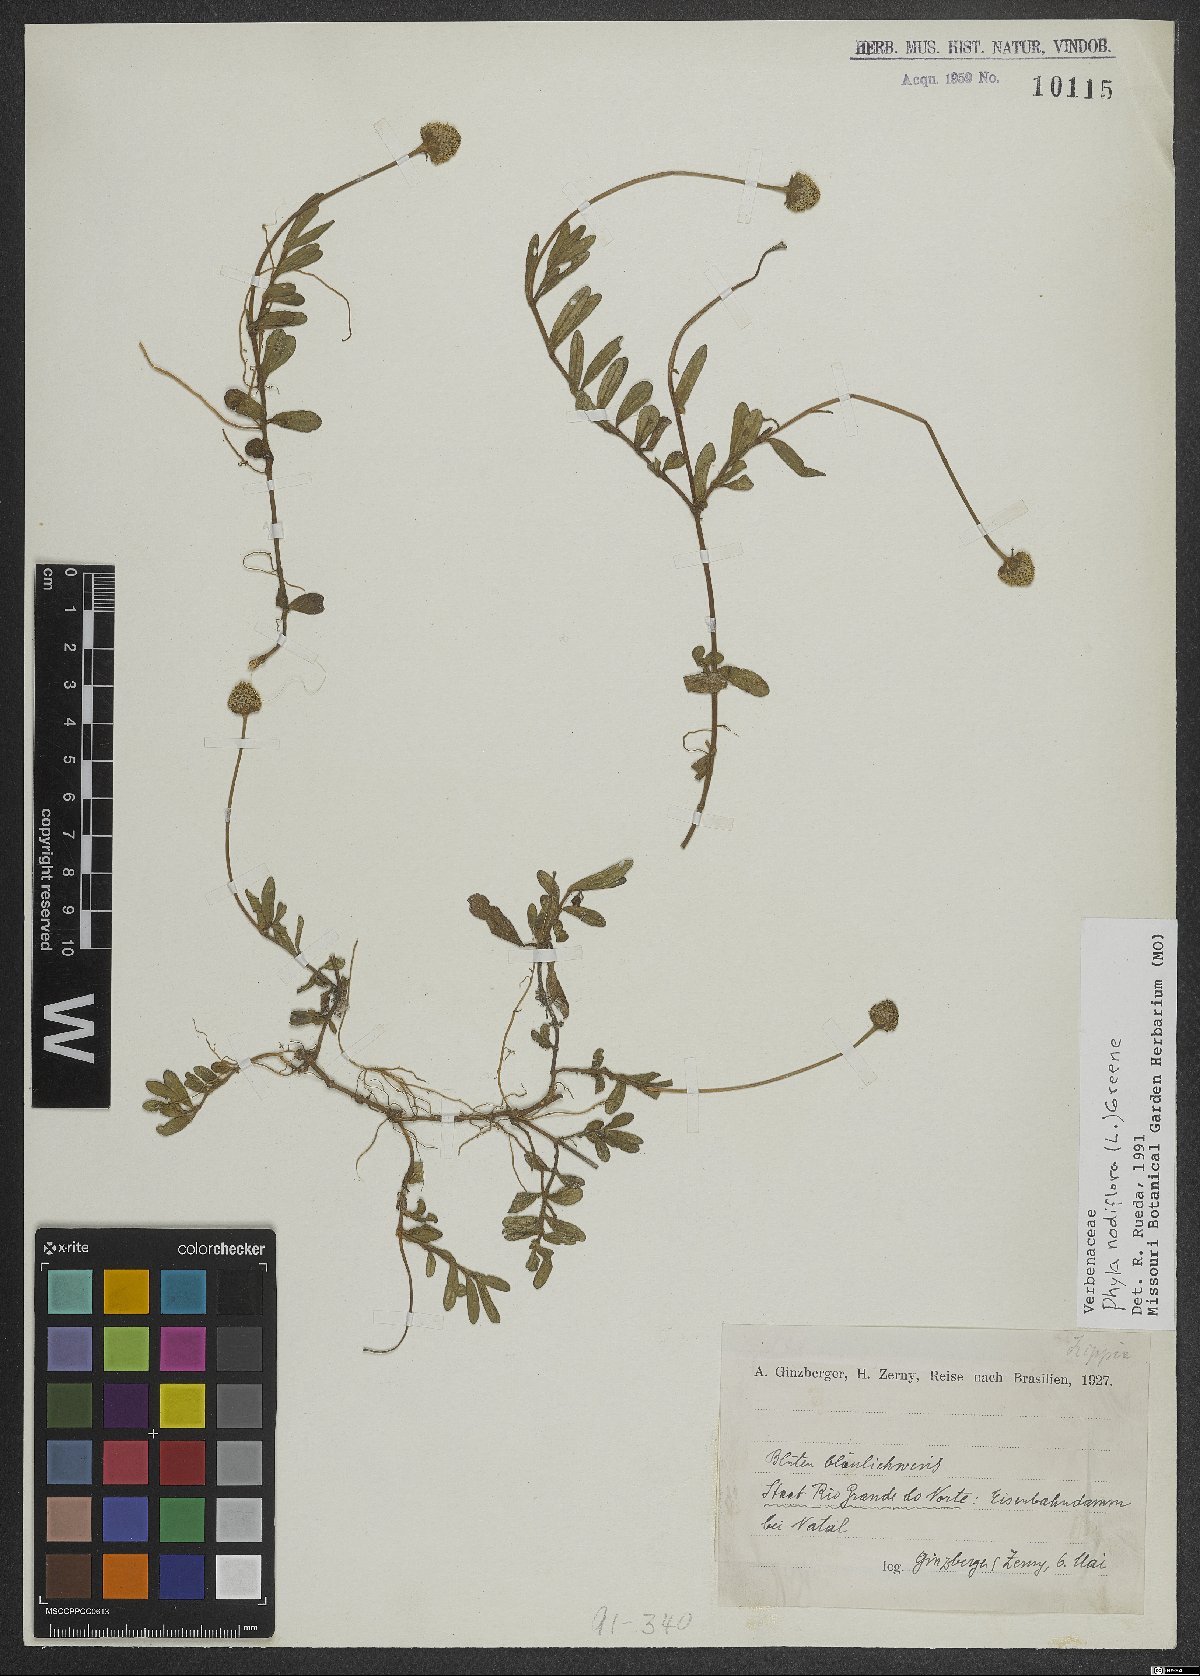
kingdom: Plantae
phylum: Tracheophyta
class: Magnoliopsida
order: Lamiales
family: Verbenaceae
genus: Phyla
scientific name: Phyla nodiflora
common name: Frogfruit
